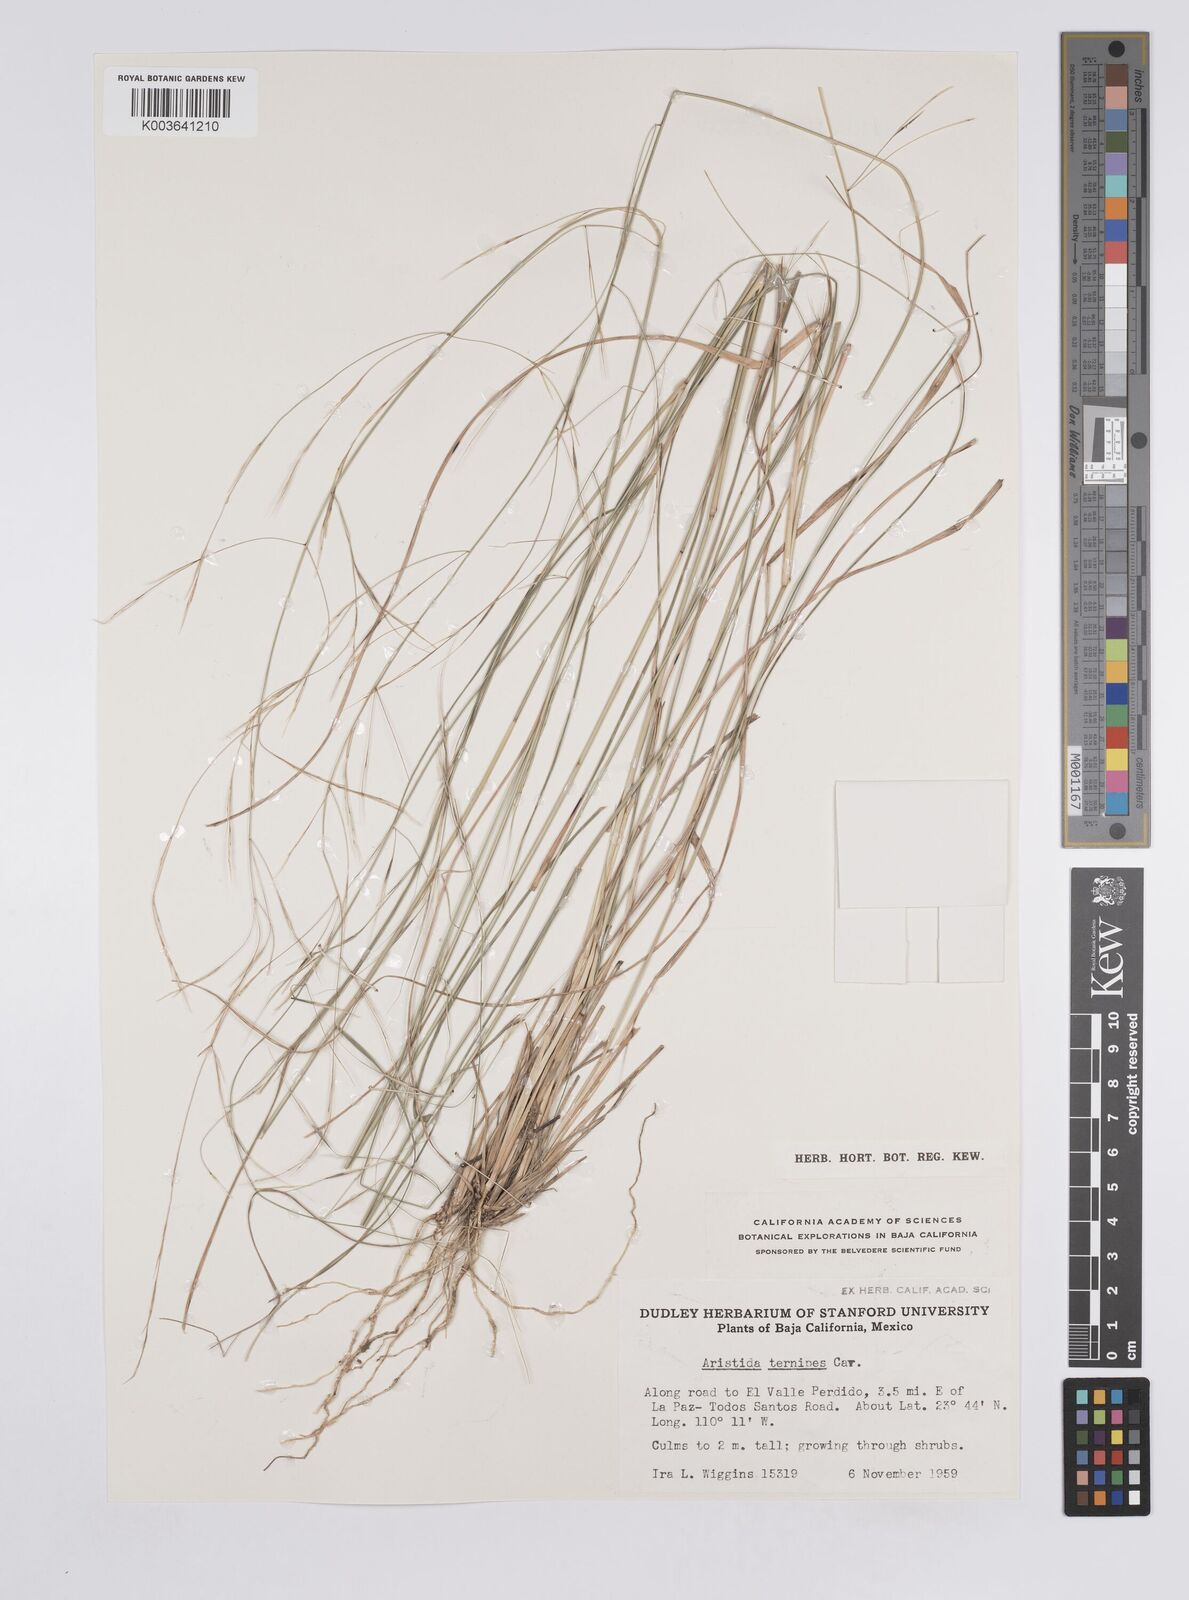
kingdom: Plantae
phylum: Tracheophyta
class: Liliopsida
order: Poales
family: Poaceae
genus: Aristida
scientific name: Aristida
